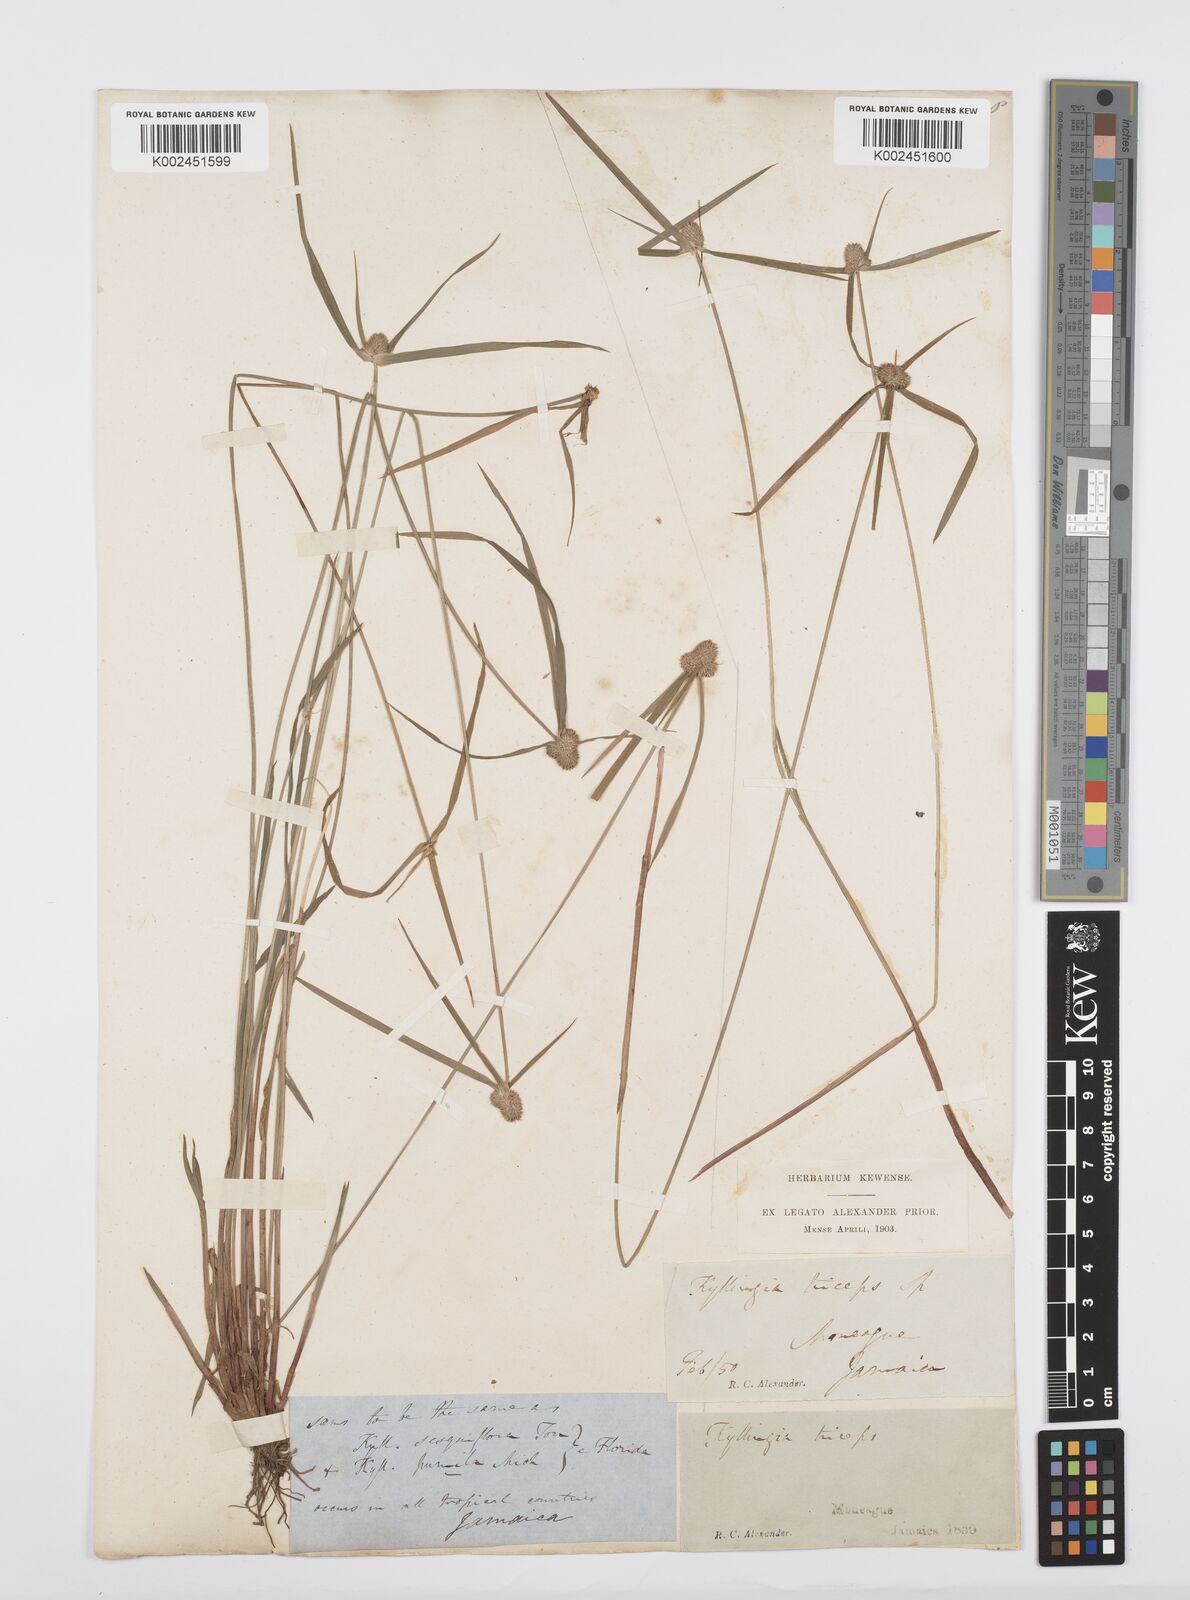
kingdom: Plantae
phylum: Tracheophyta
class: Liliopsida
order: Poales
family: Cyperaceae
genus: Cyperus
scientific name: Cyperus
